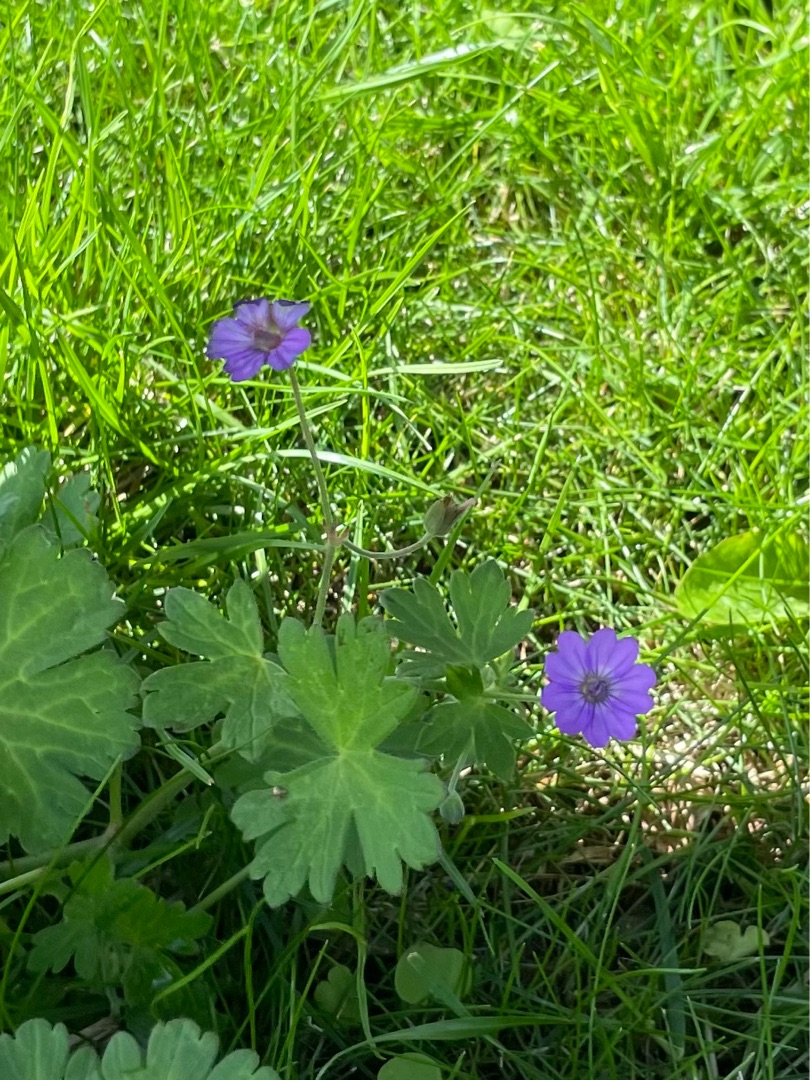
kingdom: Plantae
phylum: Tracheophyta
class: Magnoliopsida
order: Geraniales
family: Geraniaceae
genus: Geranium
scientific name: Geranium pyrenaicum
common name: Pyrenæisk storkenæb
